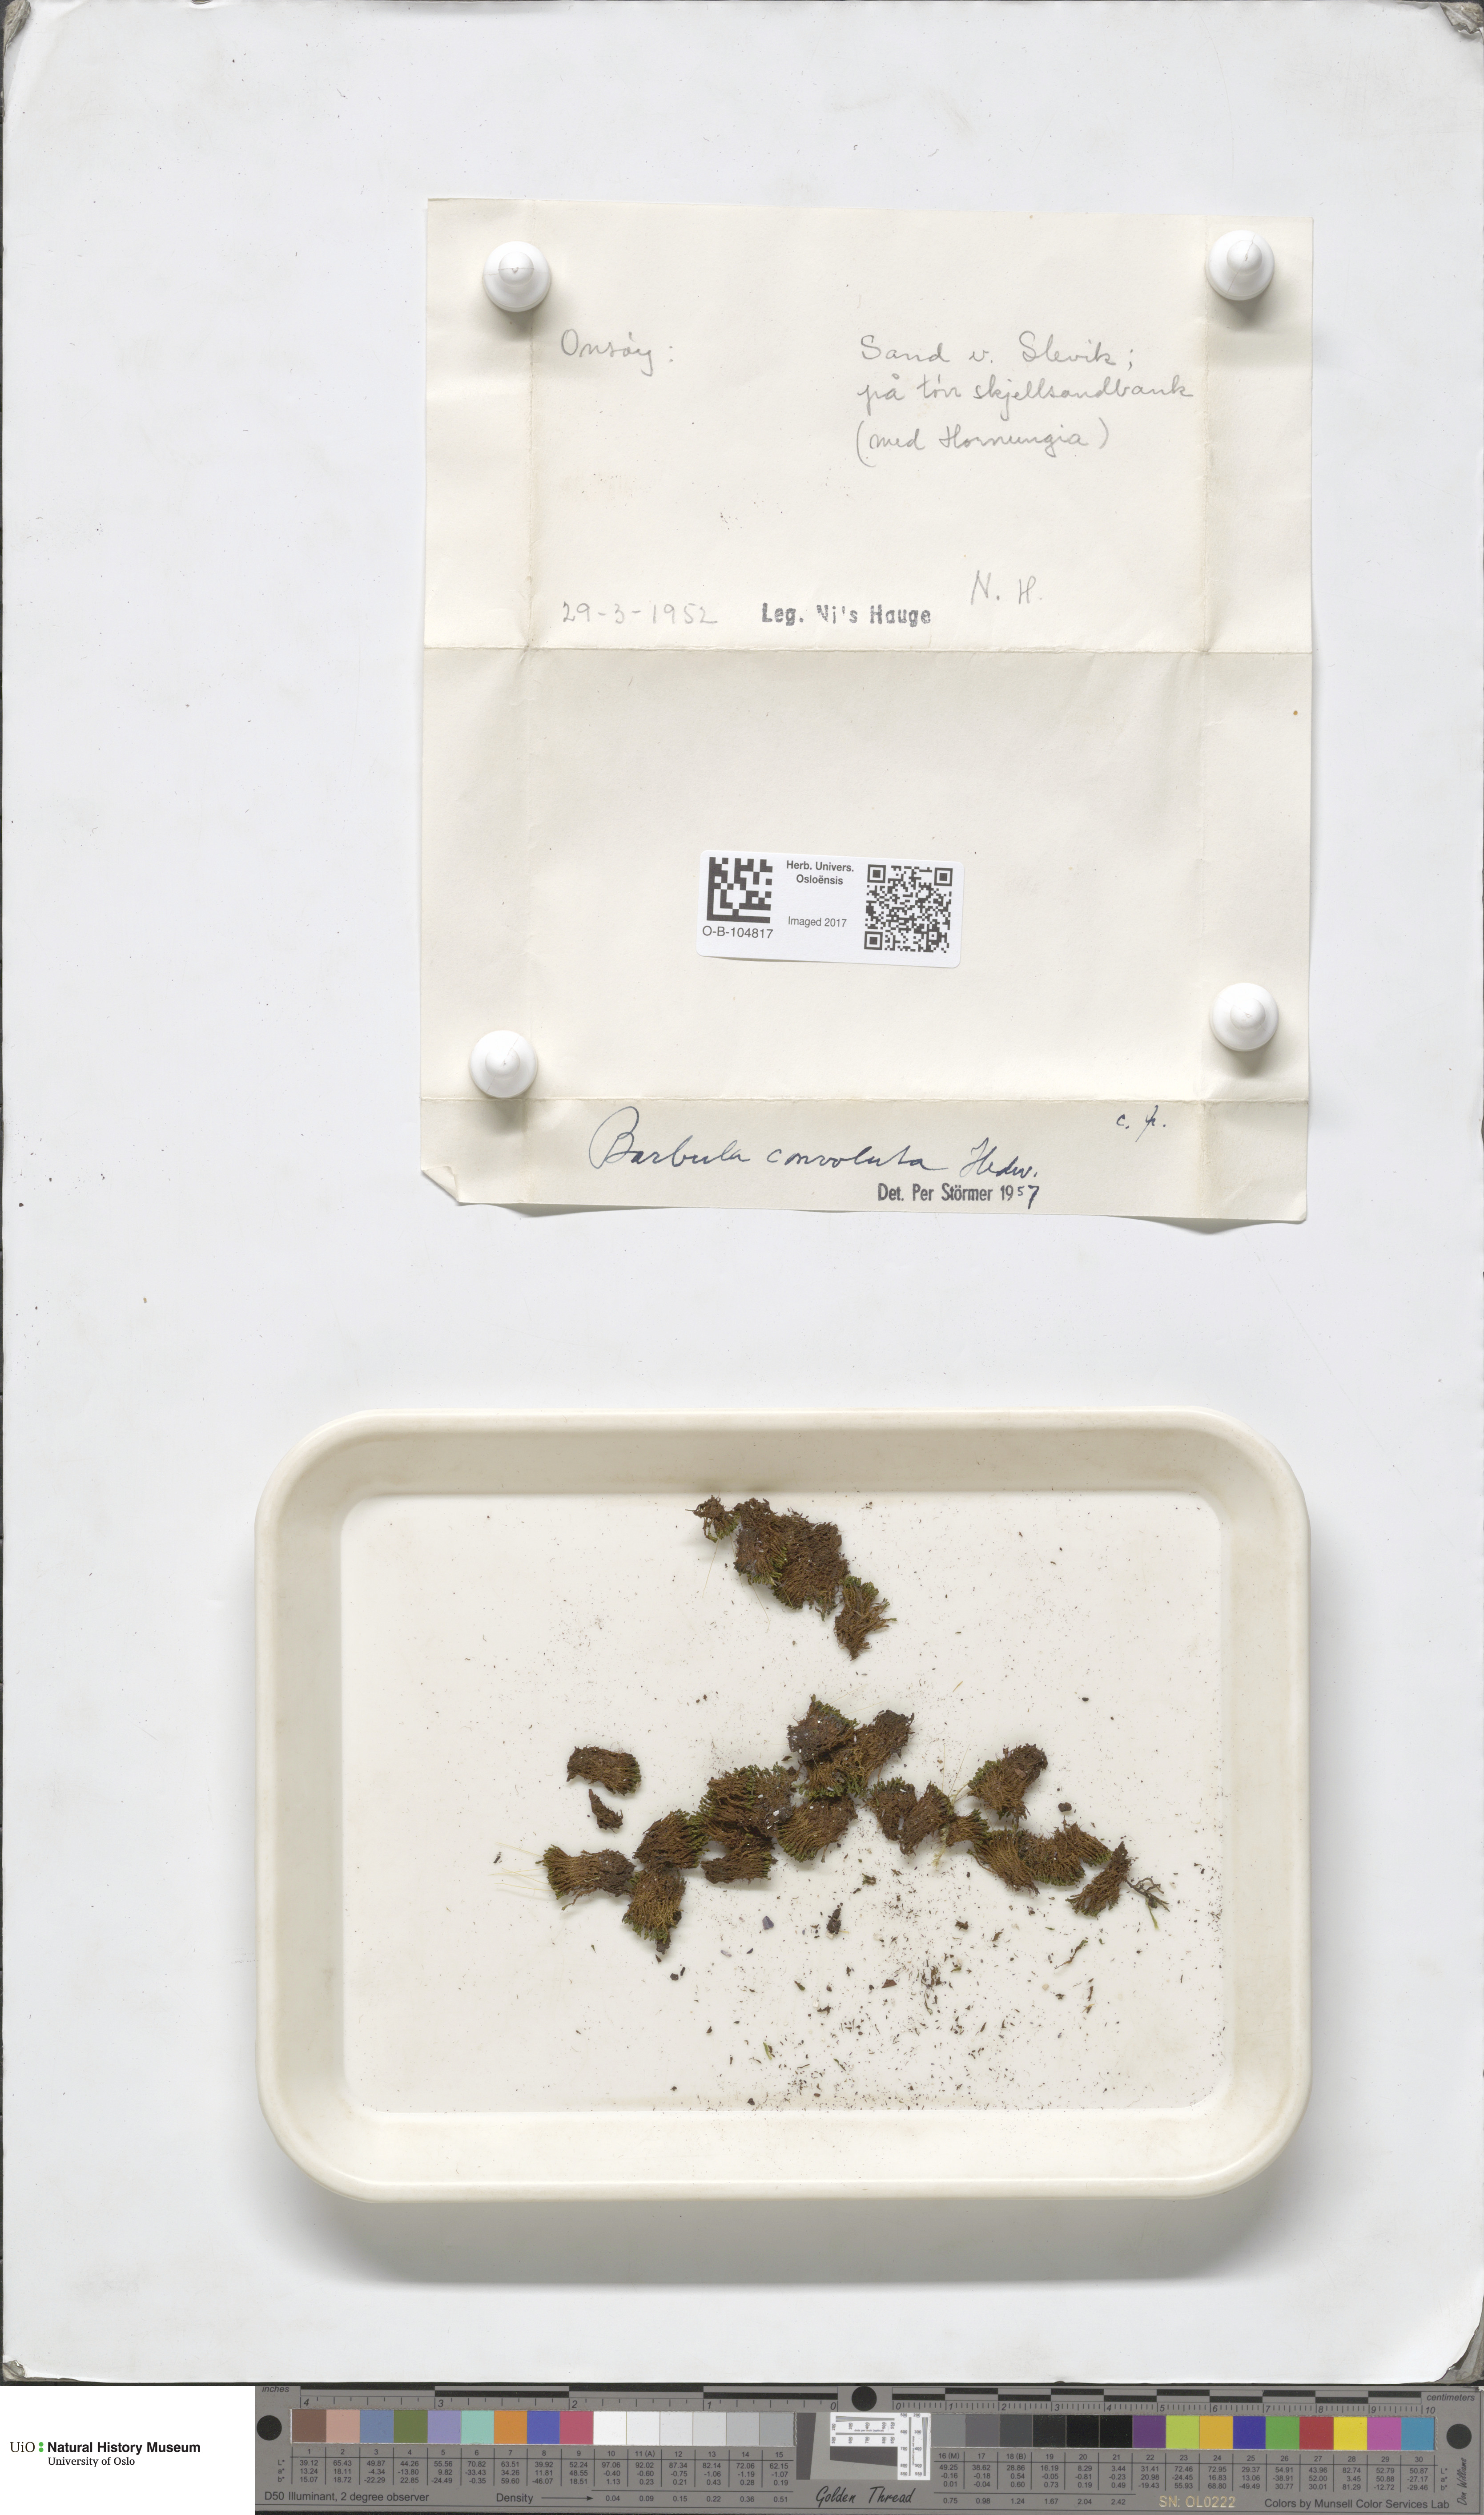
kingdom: Plantae
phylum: Bryophyta
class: Bryopsida
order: Pottiales
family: Pottiaceae
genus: Streblotrichum
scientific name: Streblotrichum convolutum
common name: Lesser bird's-claw beard-moss
